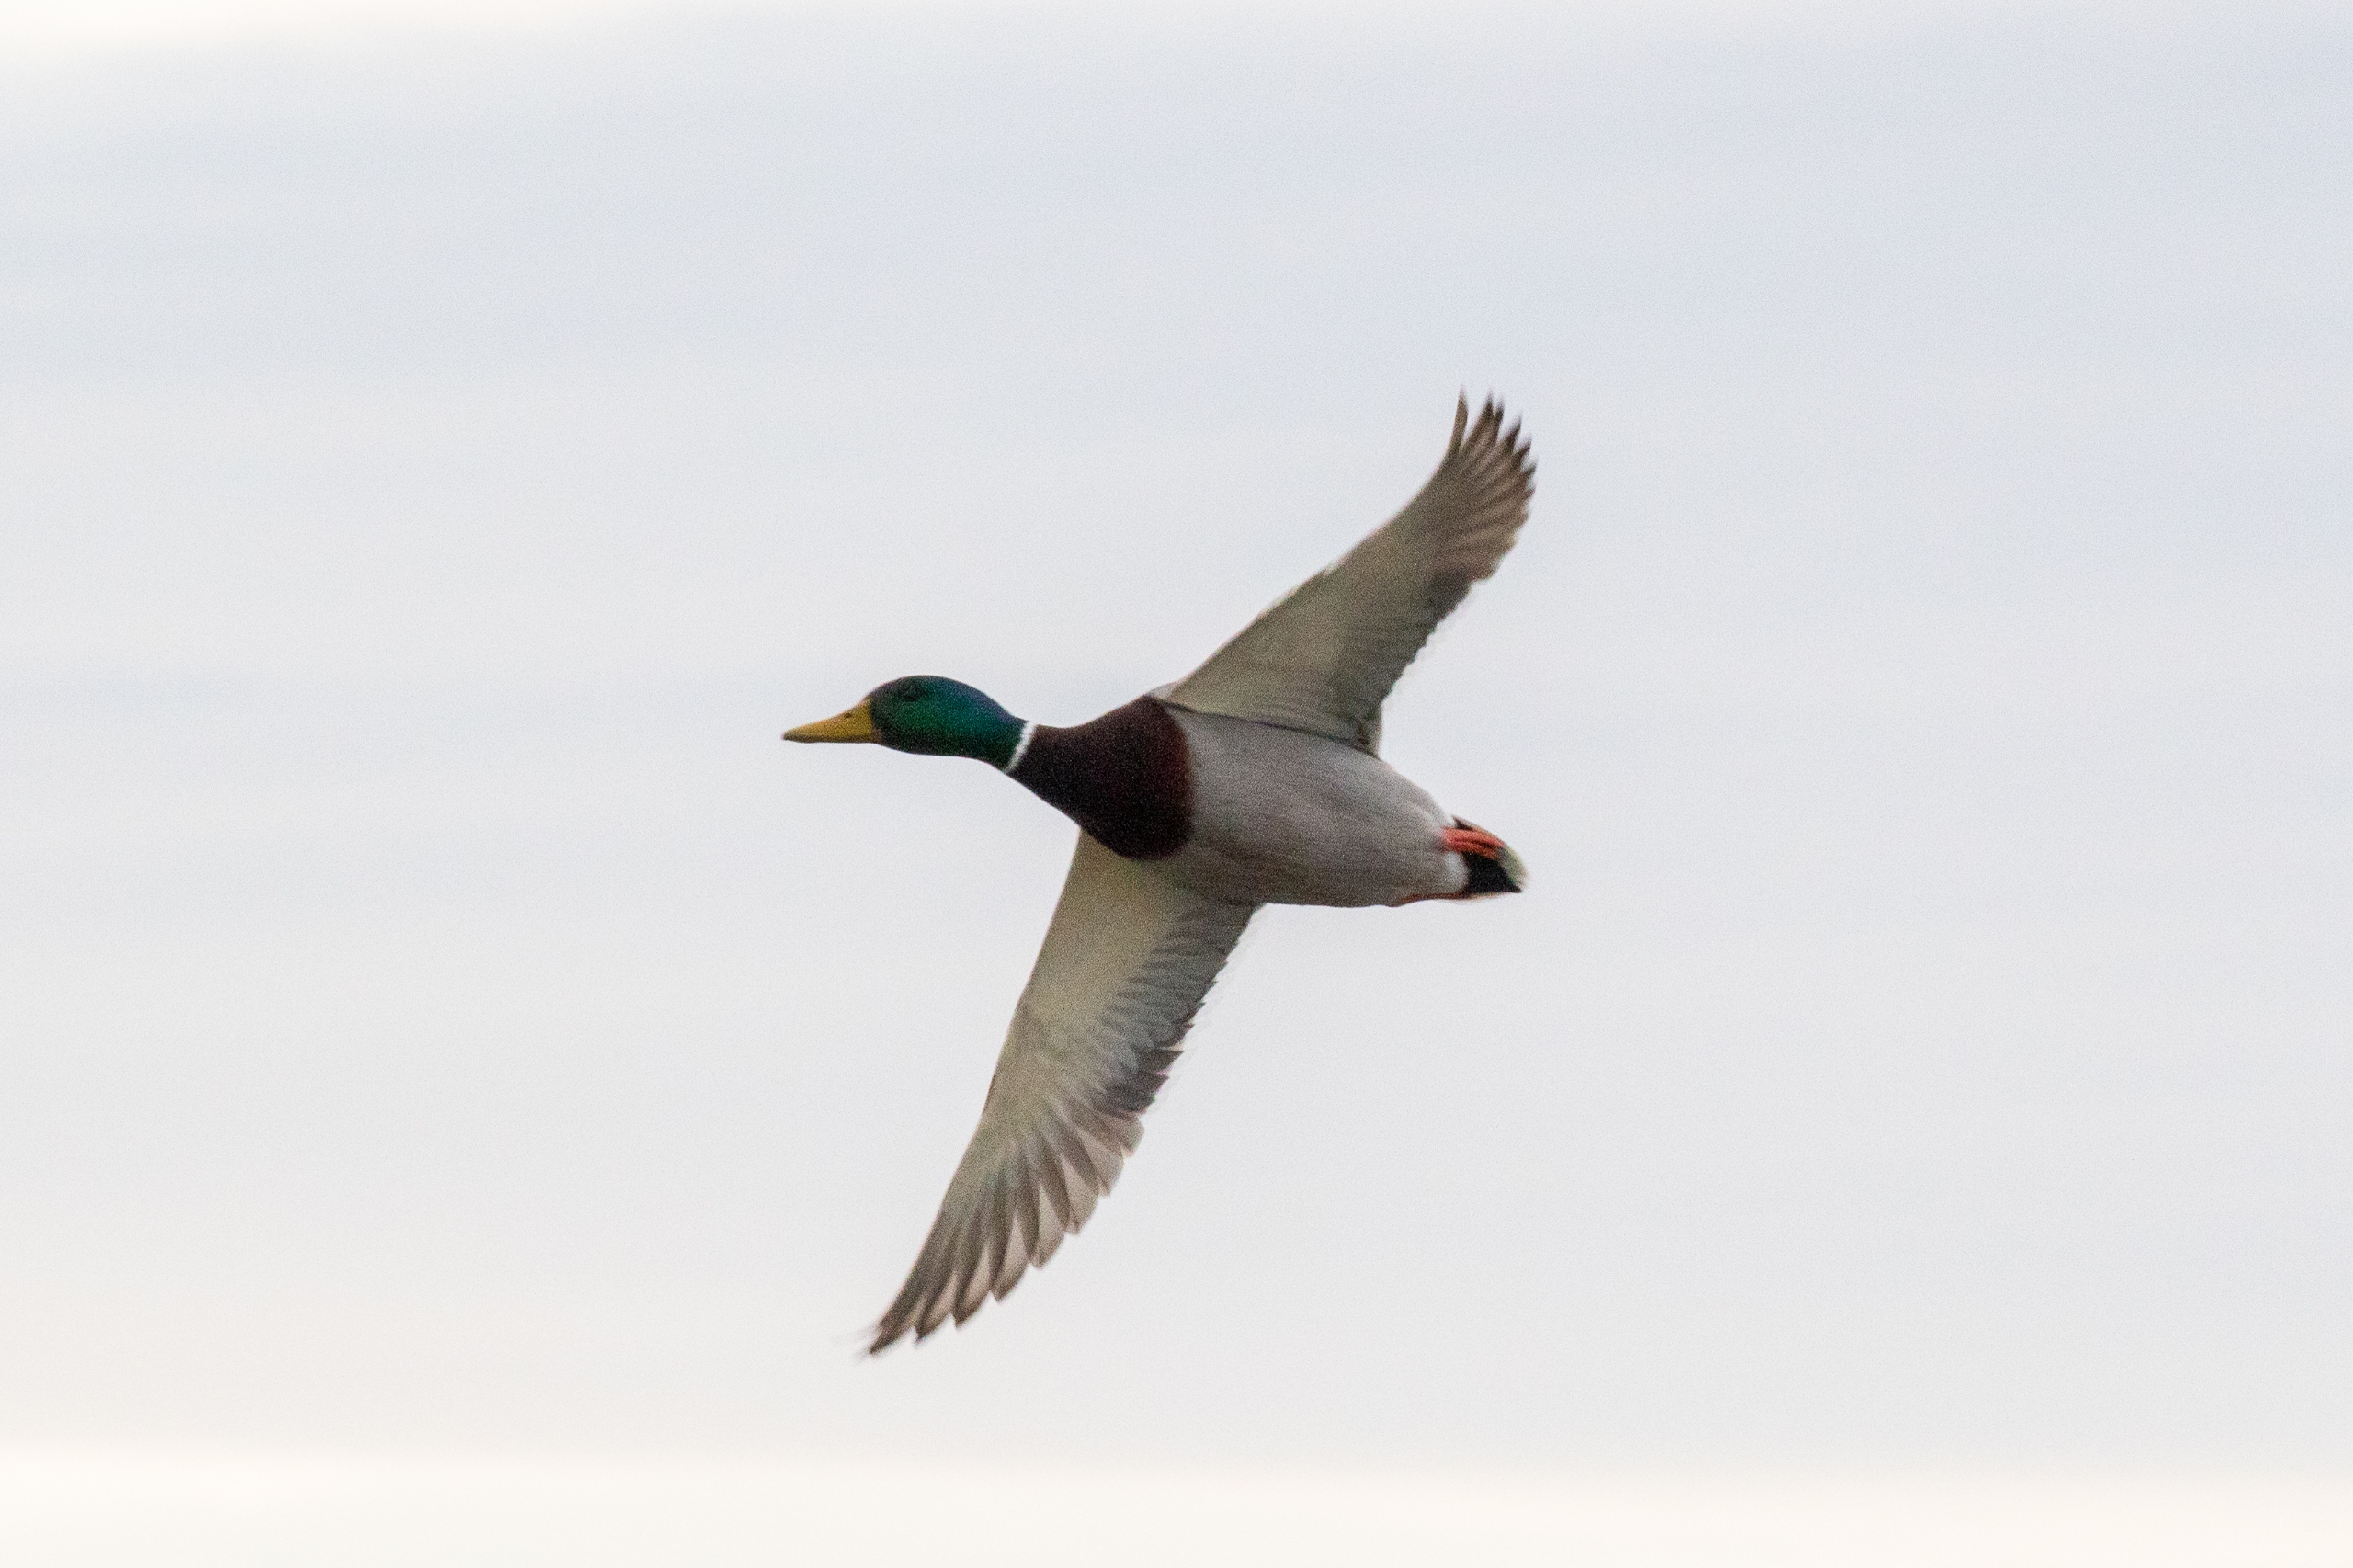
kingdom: Animalia
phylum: Chordata
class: Aves
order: Anseriformes
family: Anatidae
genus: Anas
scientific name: Anas platyrhynchos
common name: Gråand
